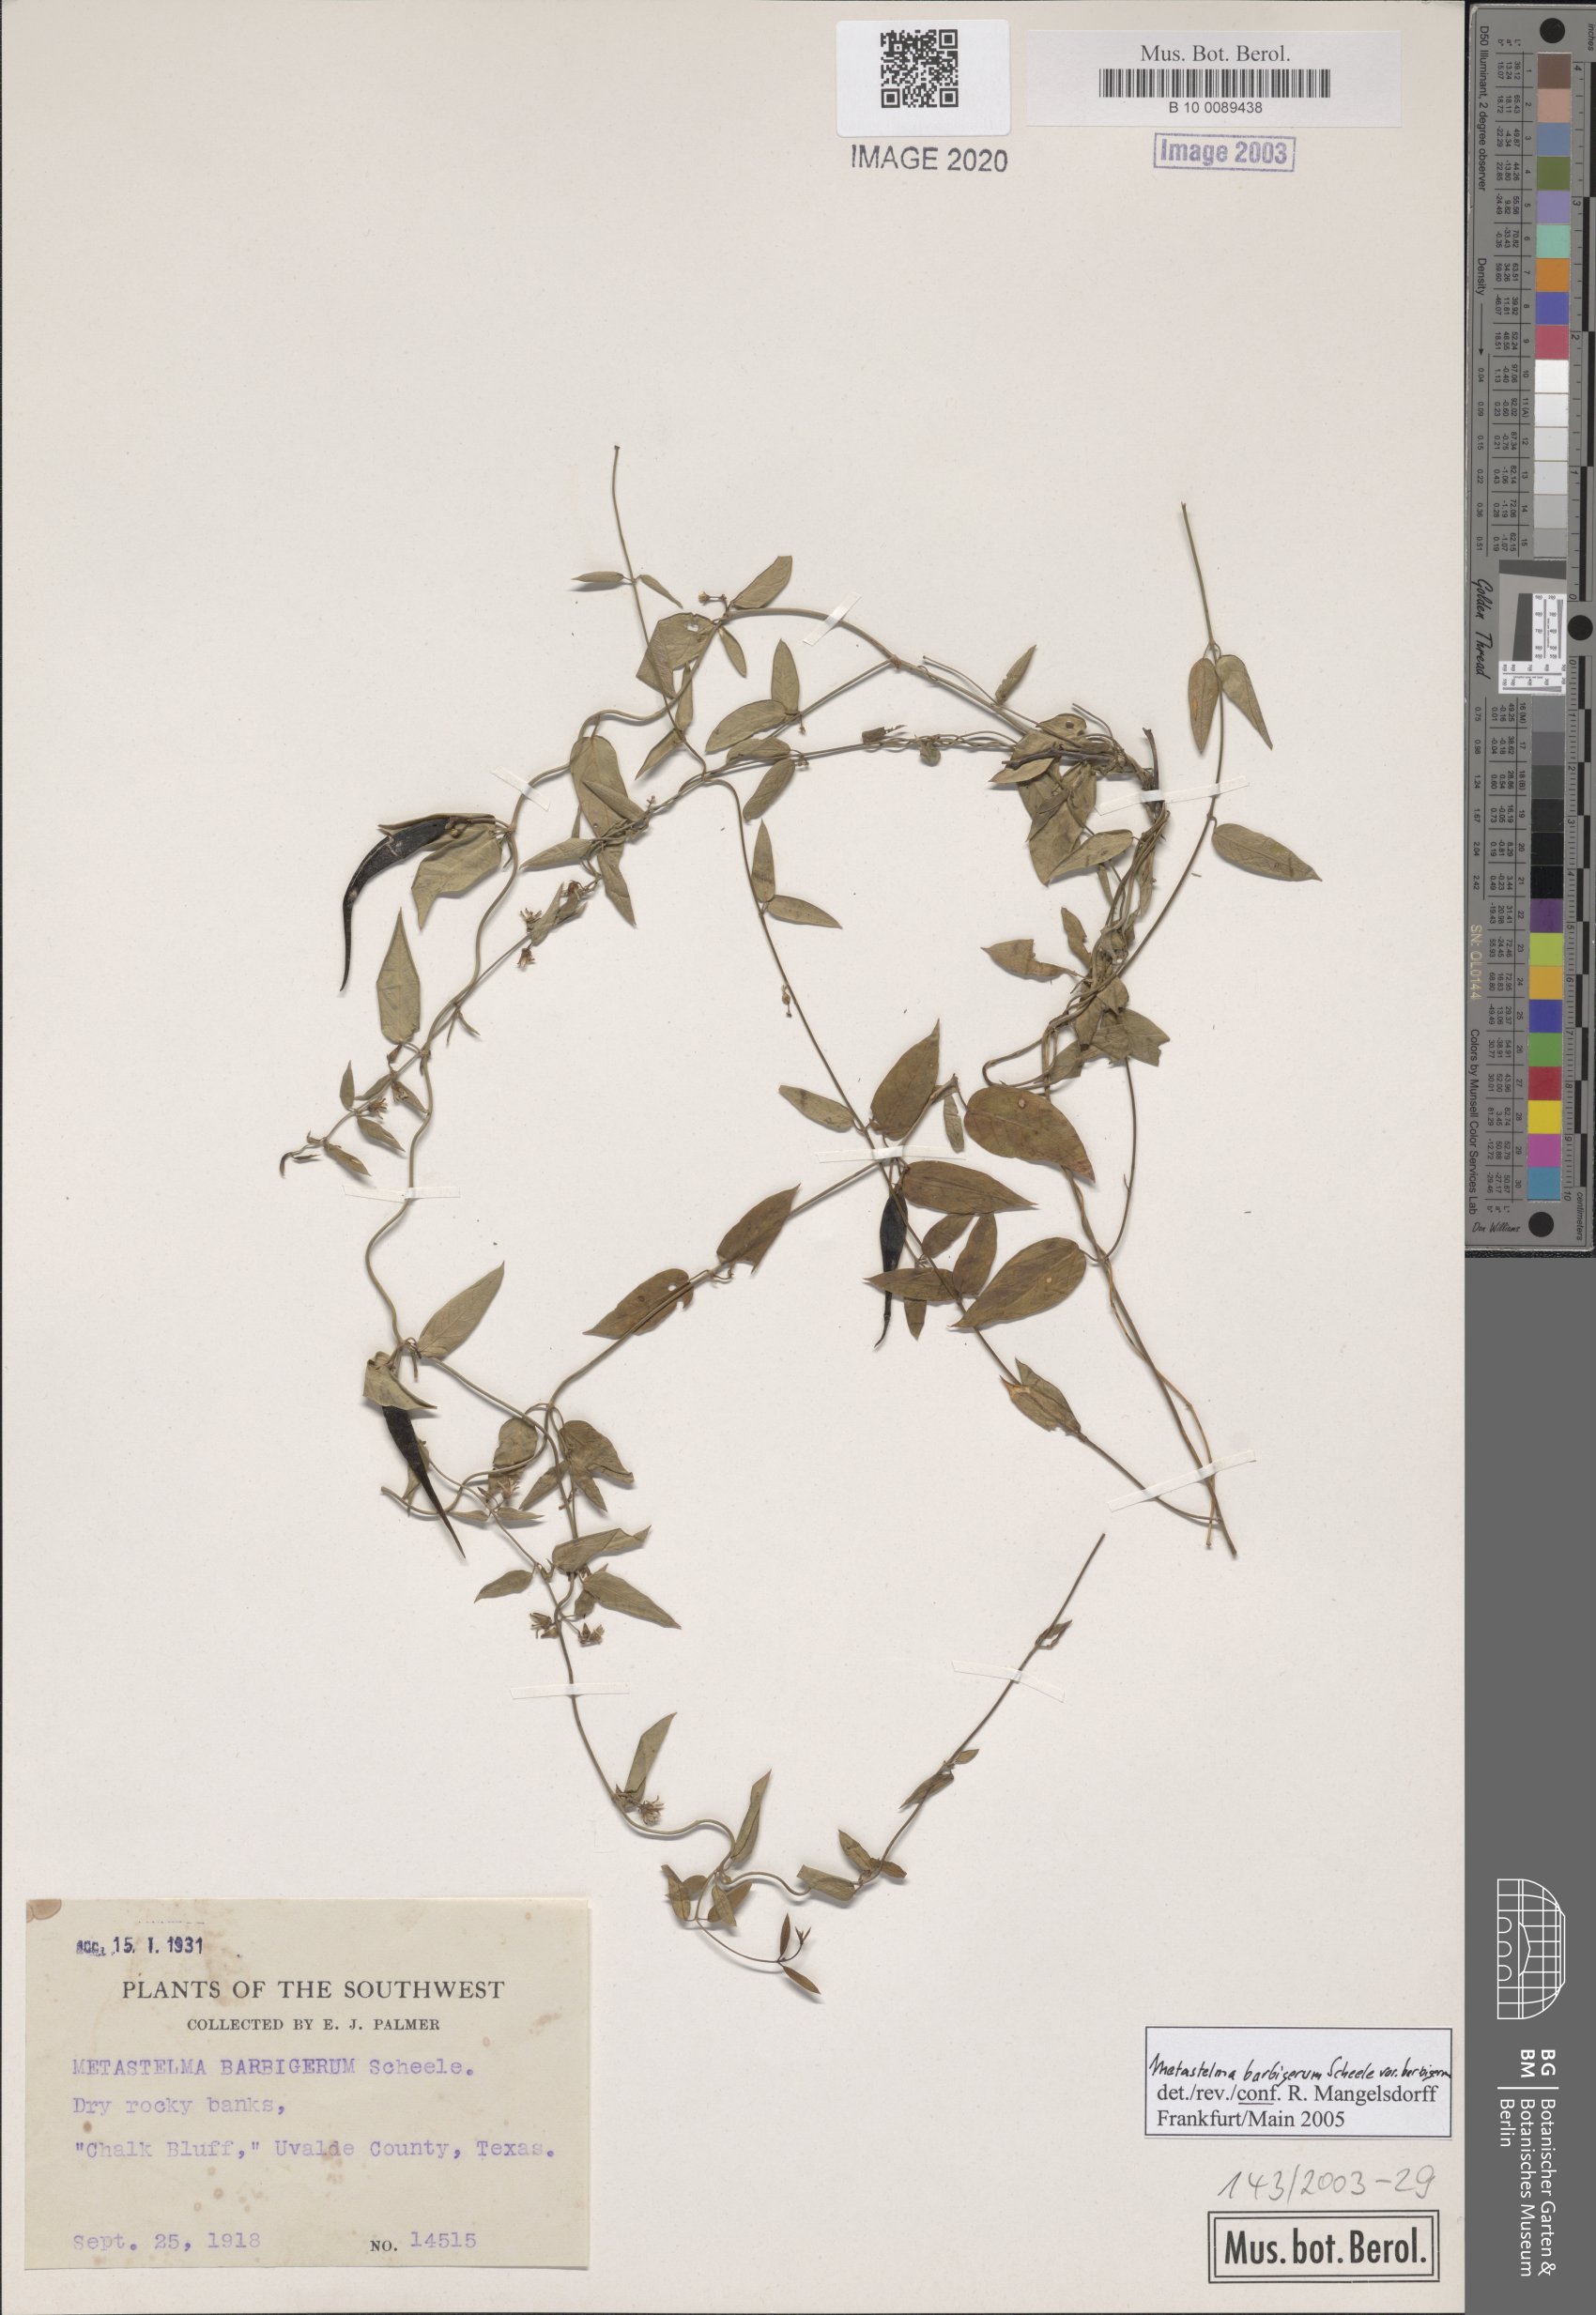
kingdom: Plantae
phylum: Tracheophyta
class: Magnoliopsida
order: Gentianales
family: Apocynaceae
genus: Metastelma
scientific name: Metastelma barbigerum
